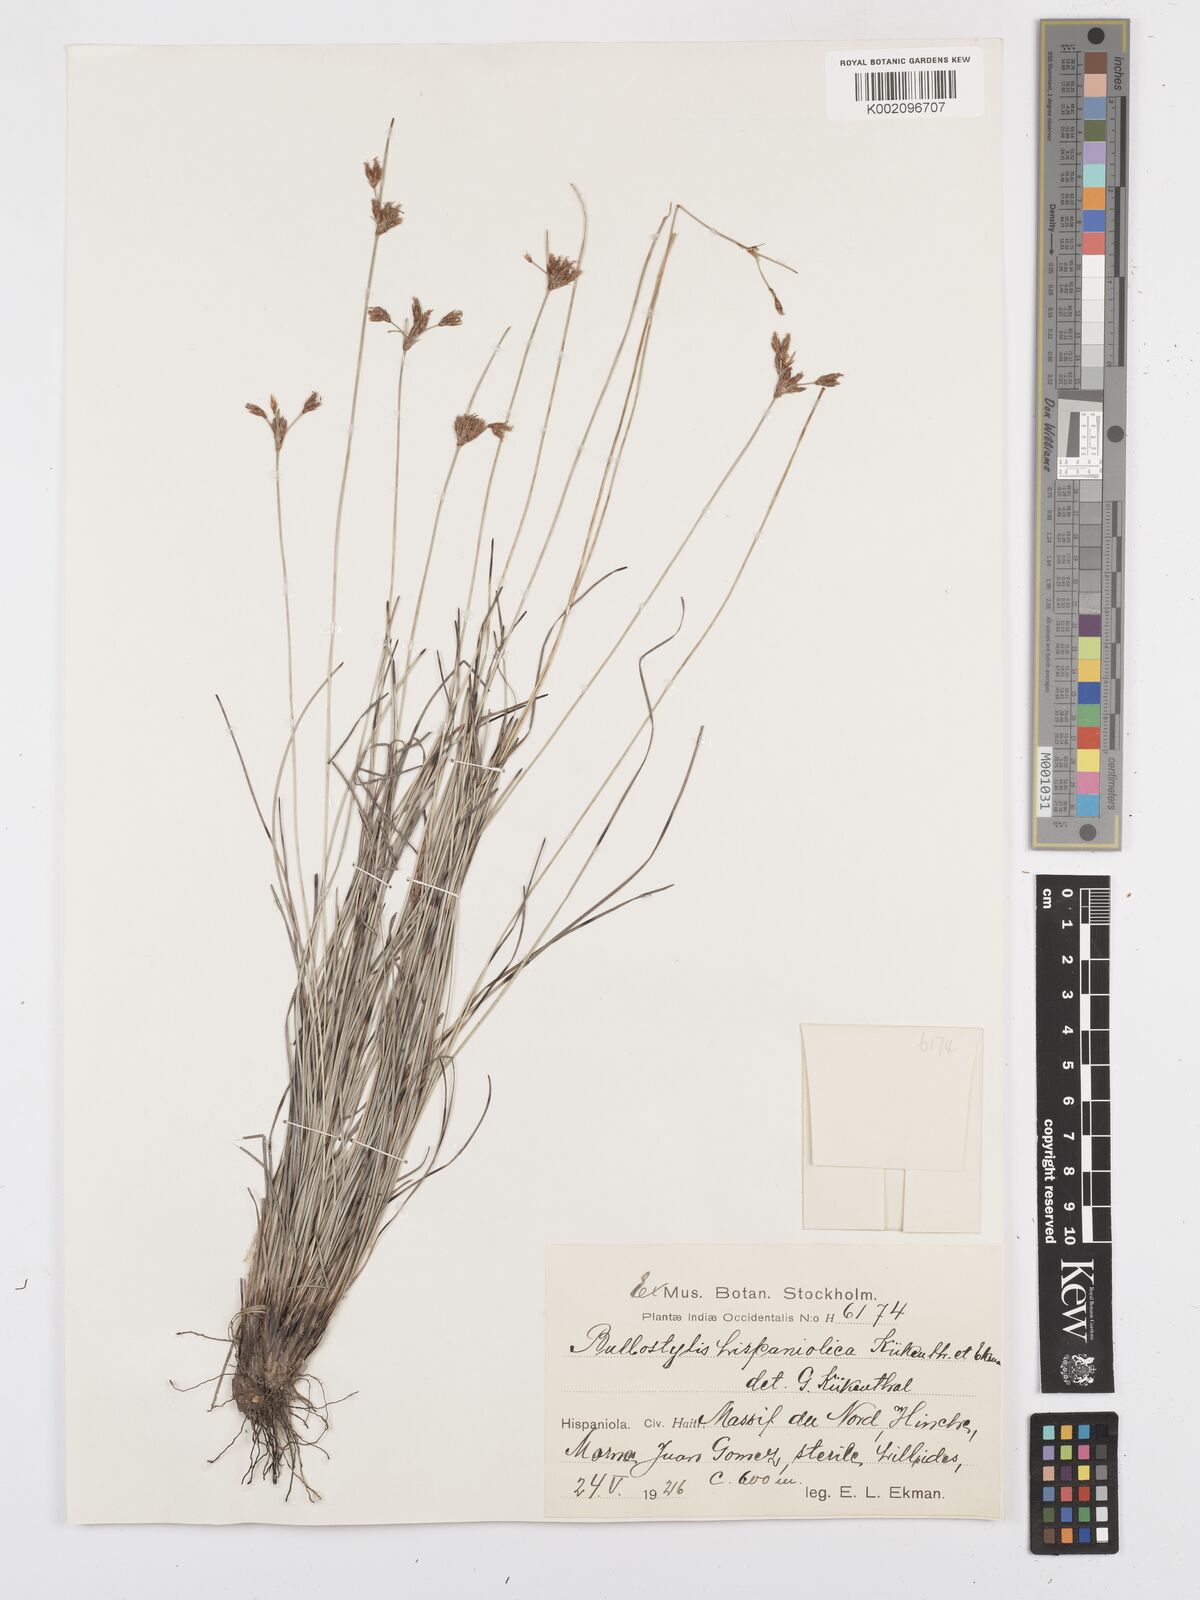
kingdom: Plantae
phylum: Tracheophyta
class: Liliopsida
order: Poales
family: Cyperaceae
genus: Bulbostylis
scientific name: Bulbostylis subaphylla
